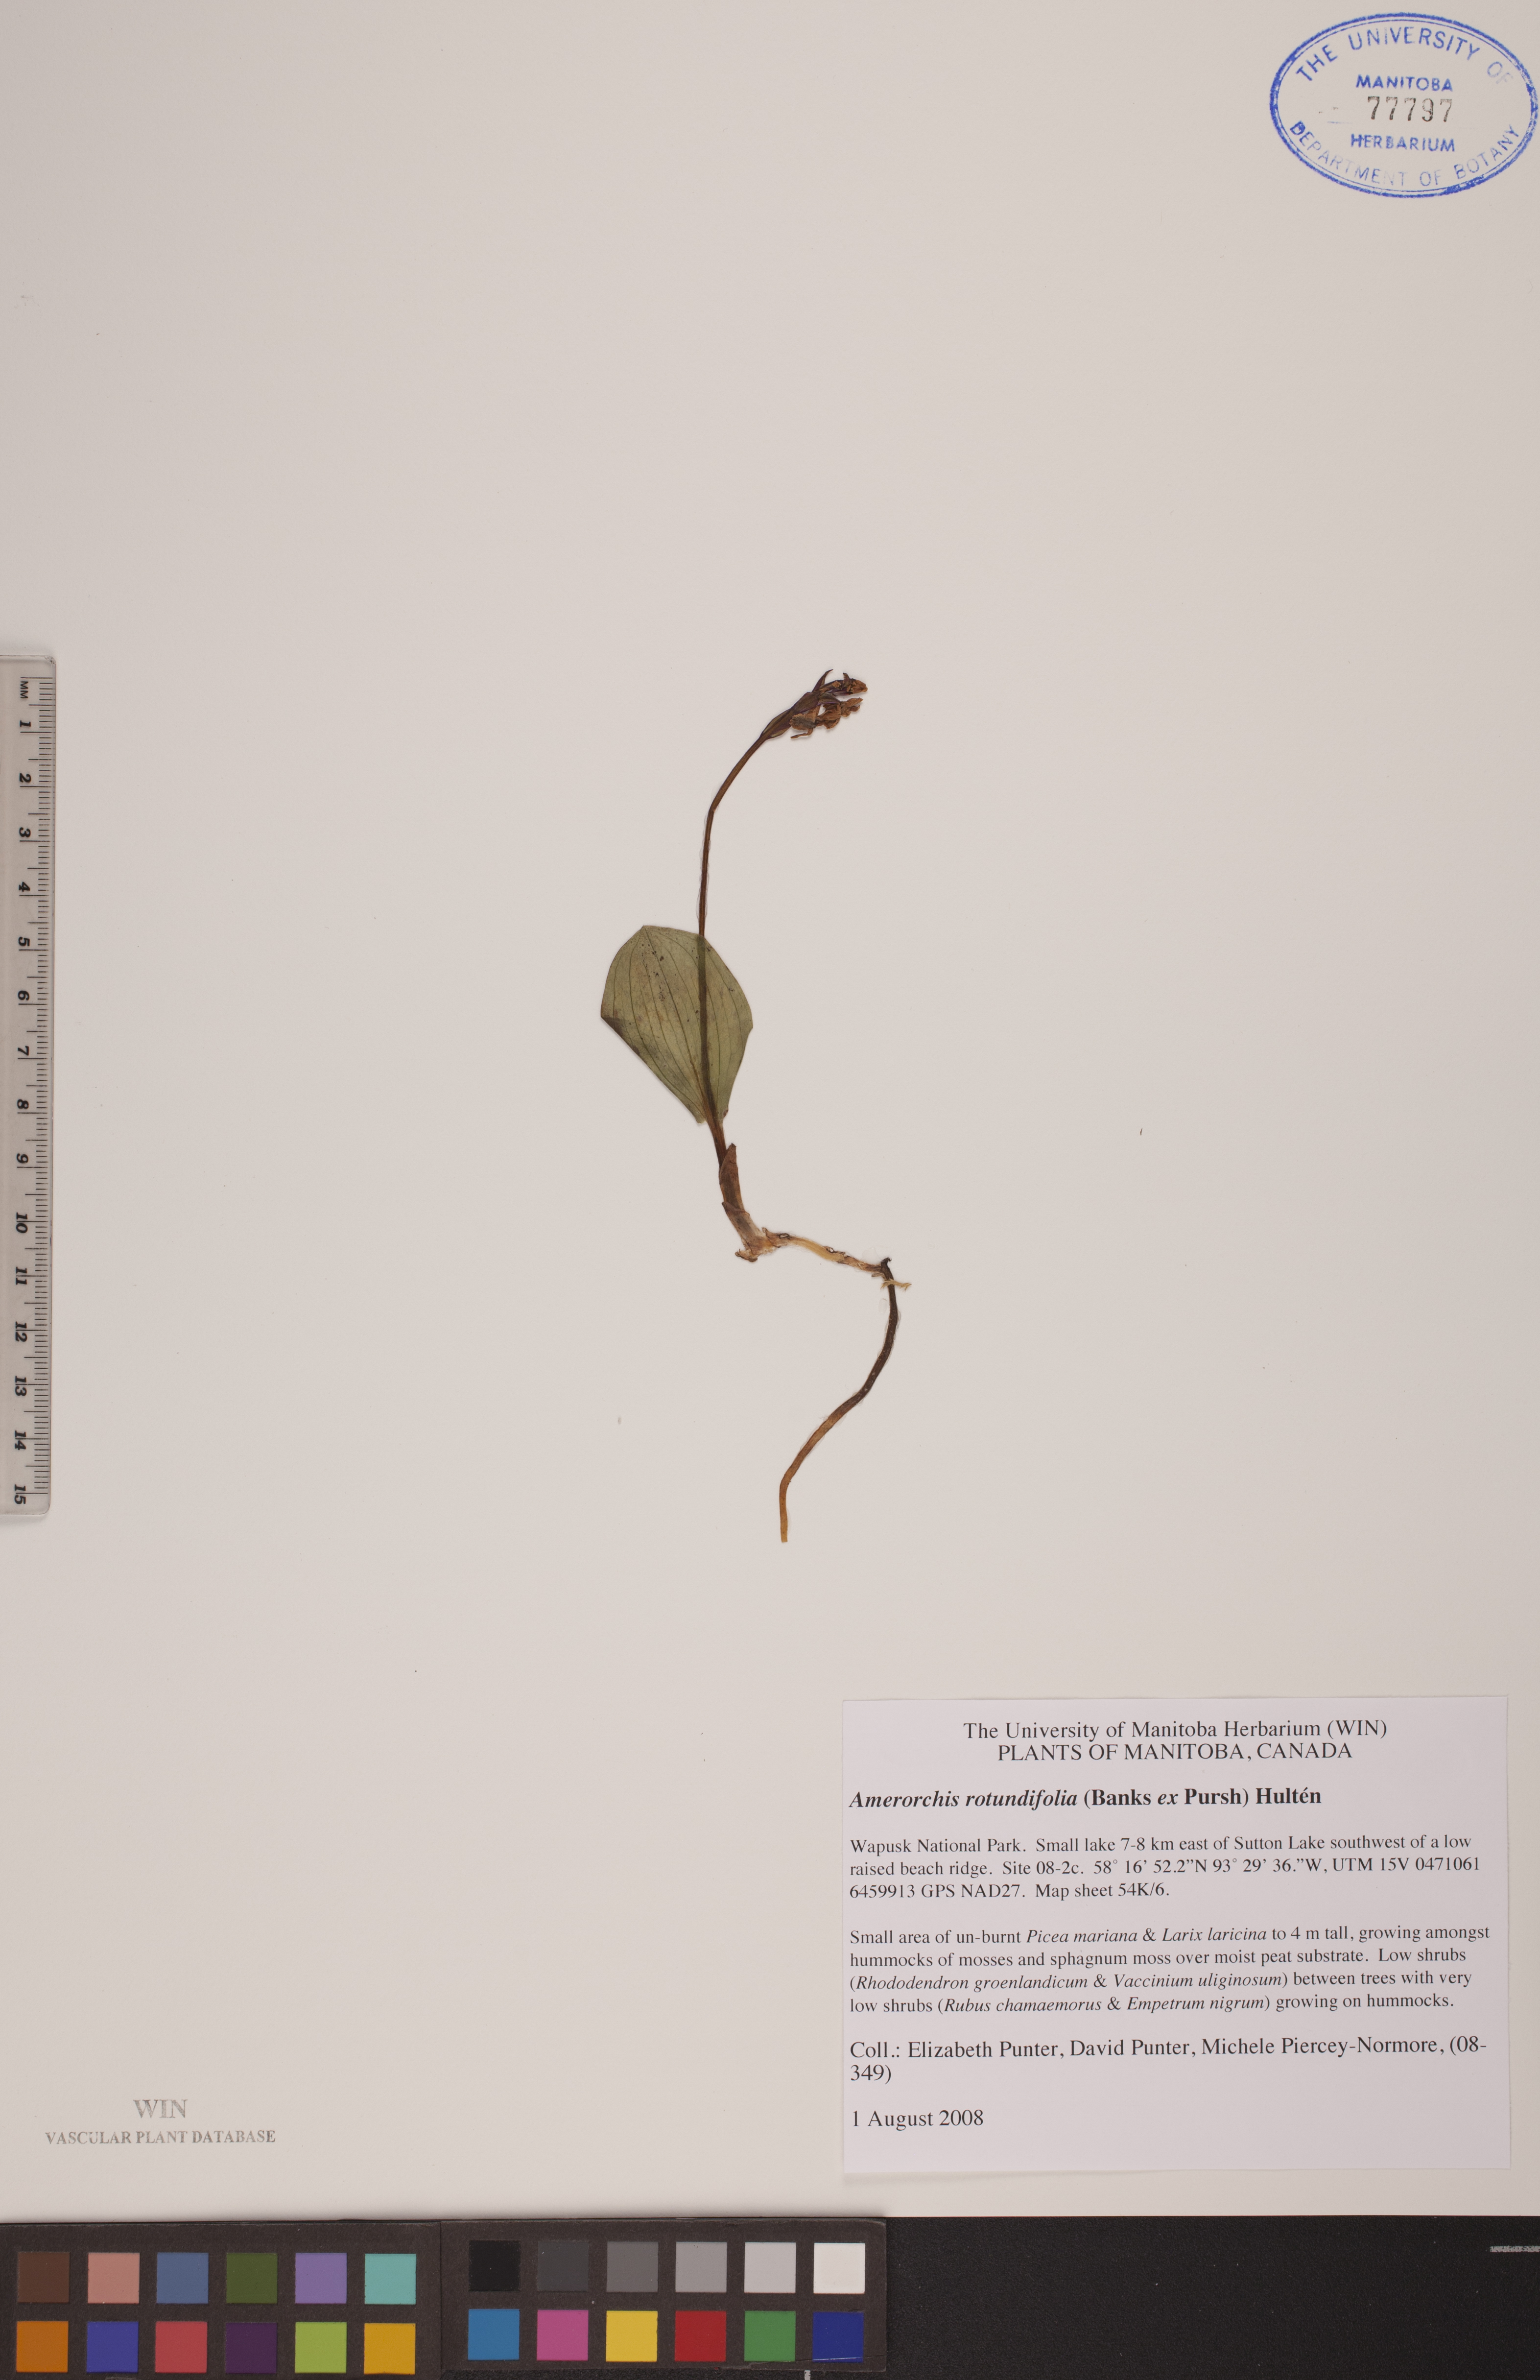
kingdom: Plantae
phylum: Tracheophyta
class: Liliopsida
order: Asparagales
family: Orchidaceae
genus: Galearis
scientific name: Galearis rotundifolia
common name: One-leaved orchis
